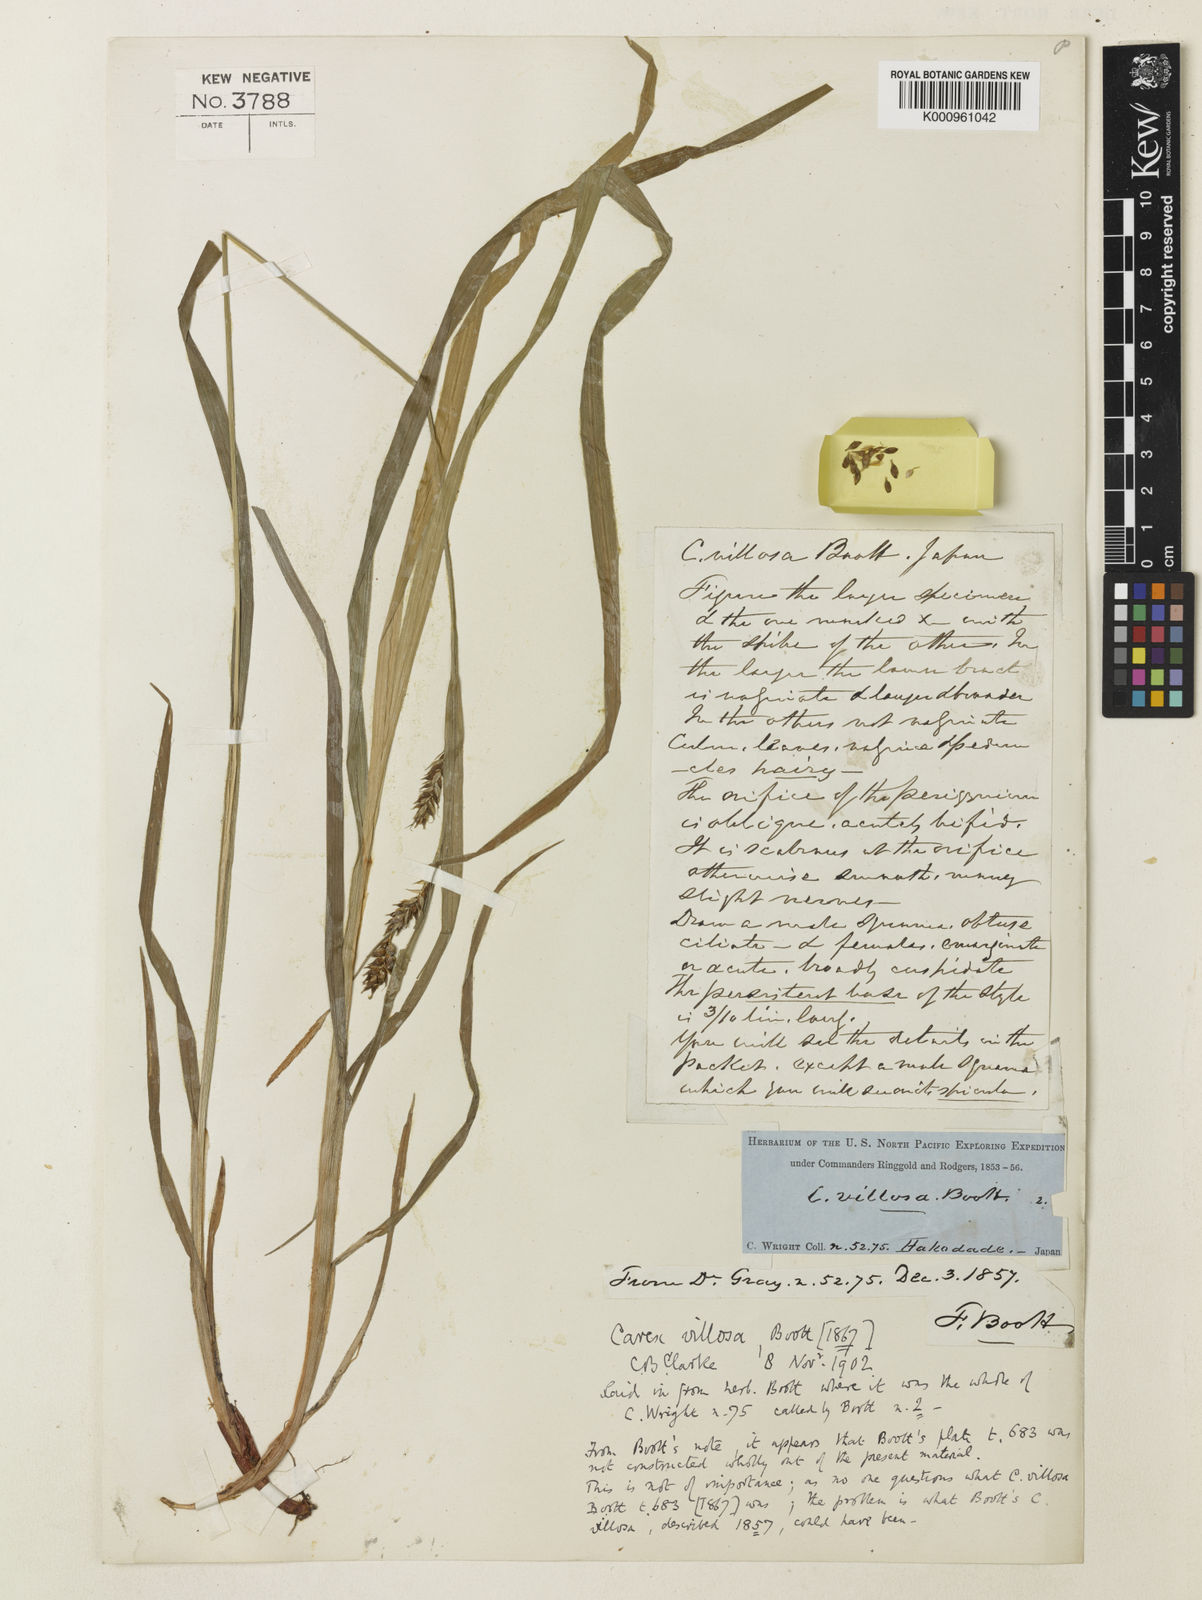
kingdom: Plantae
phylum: Tracheophyta
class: Liliopsida
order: Poales
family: Cyperaceae
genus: Carex
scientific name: Carex latisquamea
